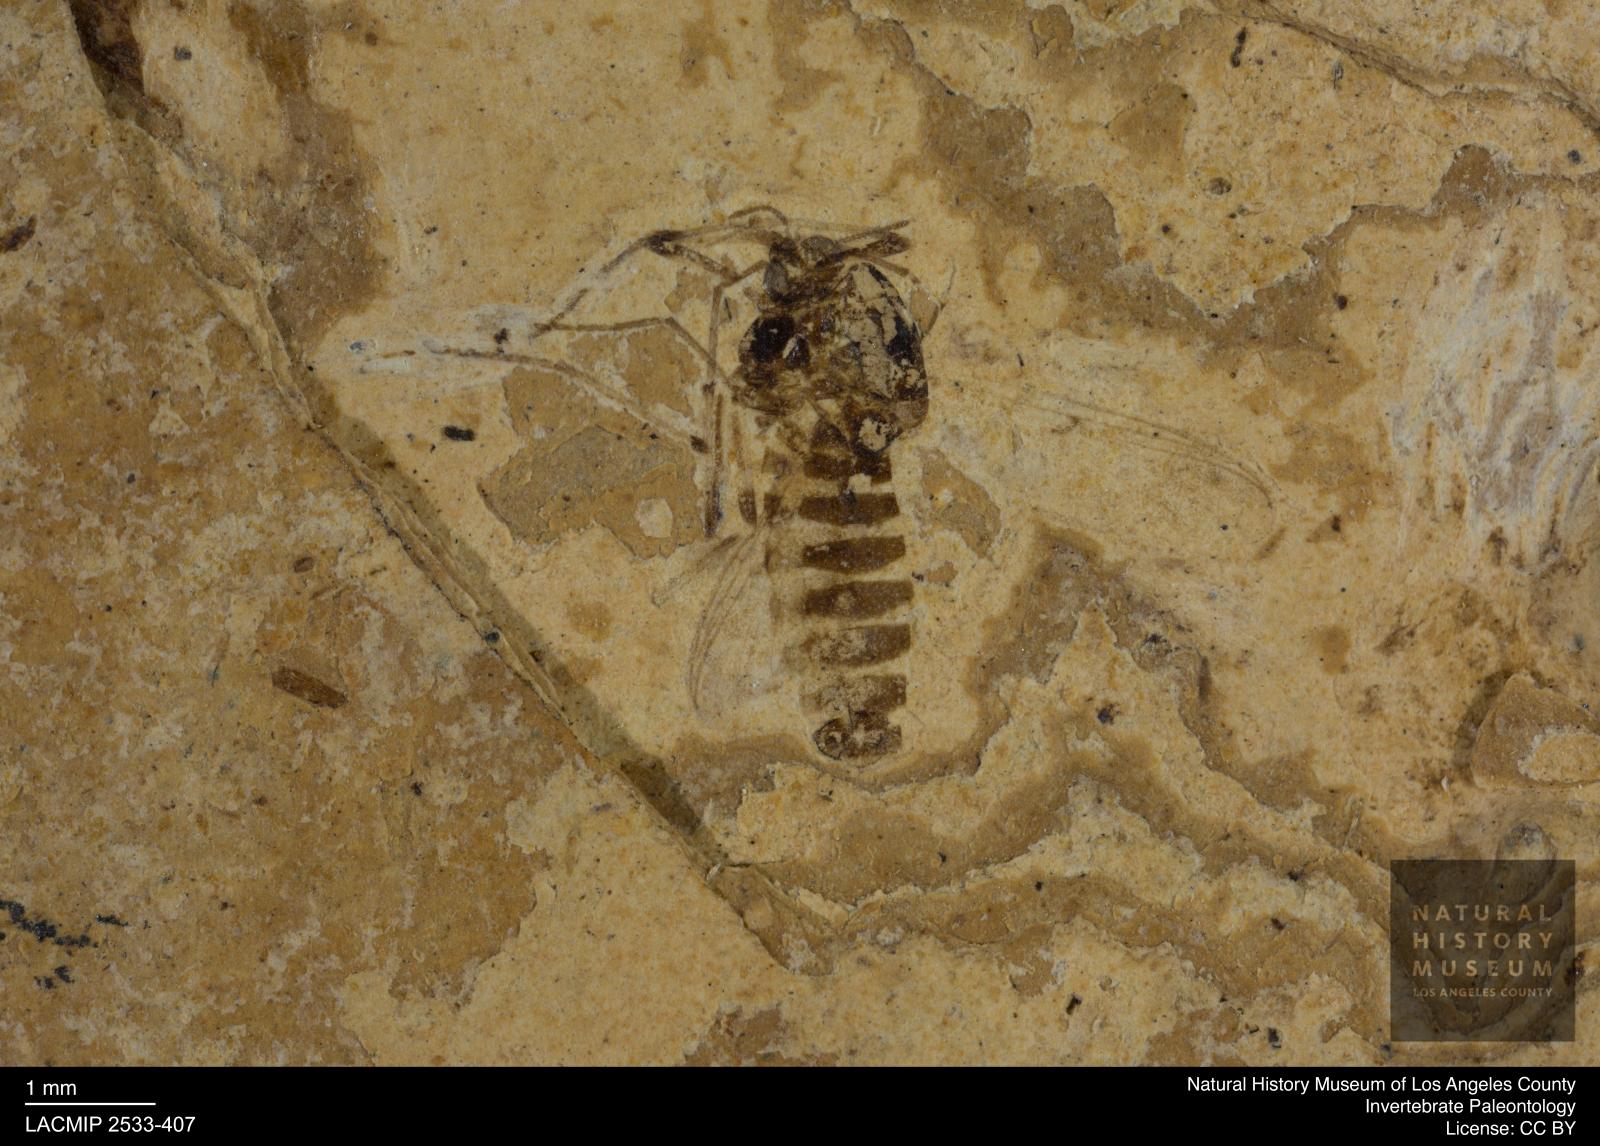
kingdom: Animalia
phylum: Arthropoda
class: Insecta
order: Diptera
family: Chironomidae
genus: Tanypus
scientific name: Tanypus dorminans
